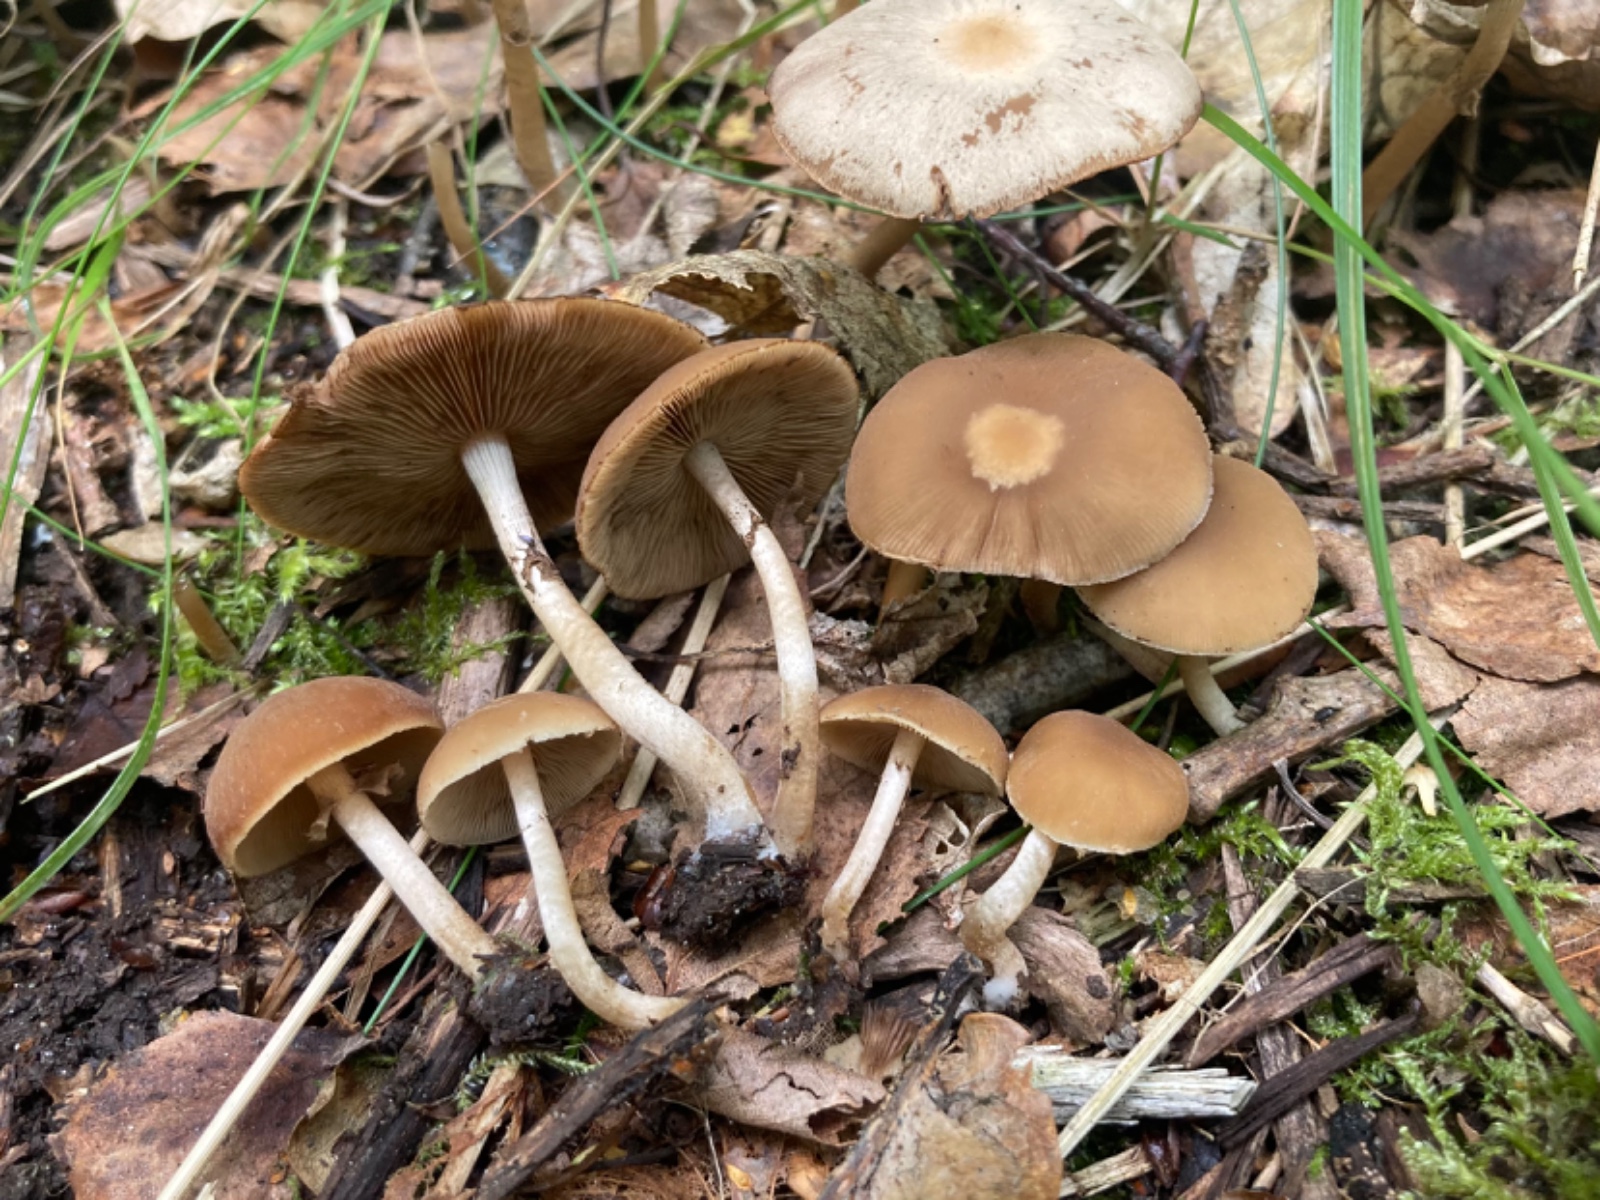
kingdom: Fungi
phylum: Basidiomycota
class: Agaricomycetes
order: Agaricales
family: Psathyrellaceae
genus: Psathyrella
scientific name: Psathyrella
